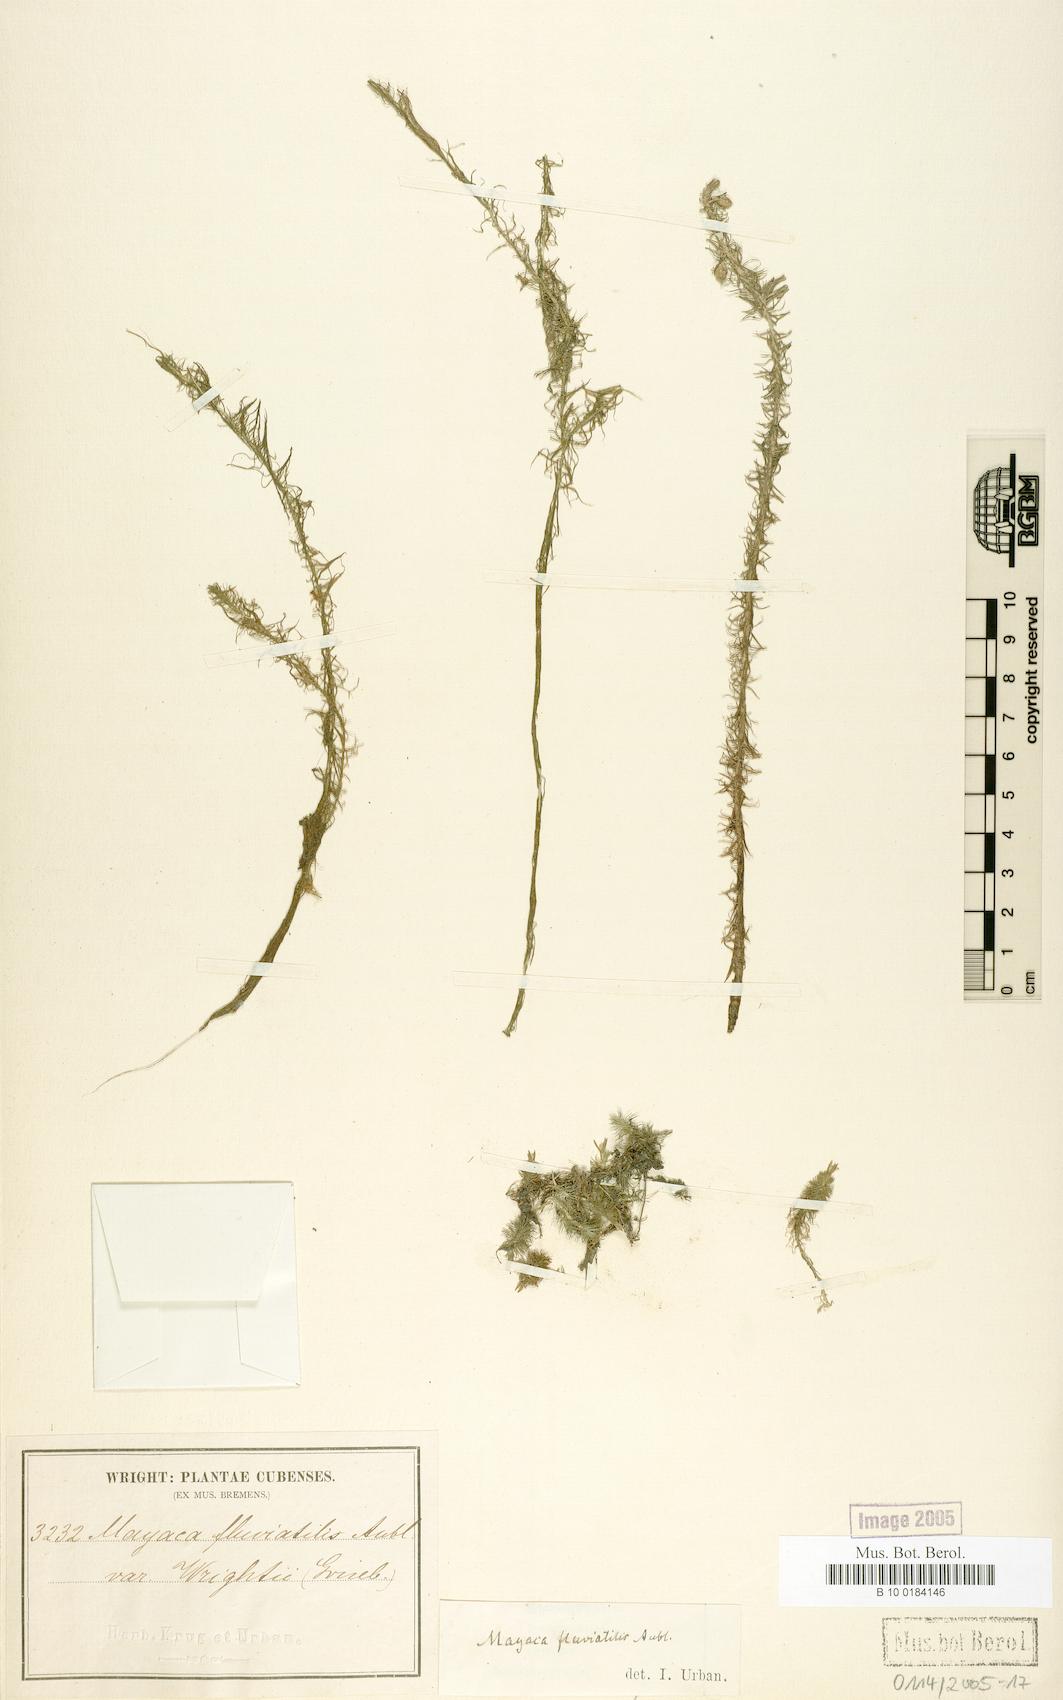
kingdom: Plantae
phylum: Tracheophyta
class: Liliopsida
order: Poales
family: Mayacaceae
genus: Mayaca
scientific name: Mayaca fluviatilis
